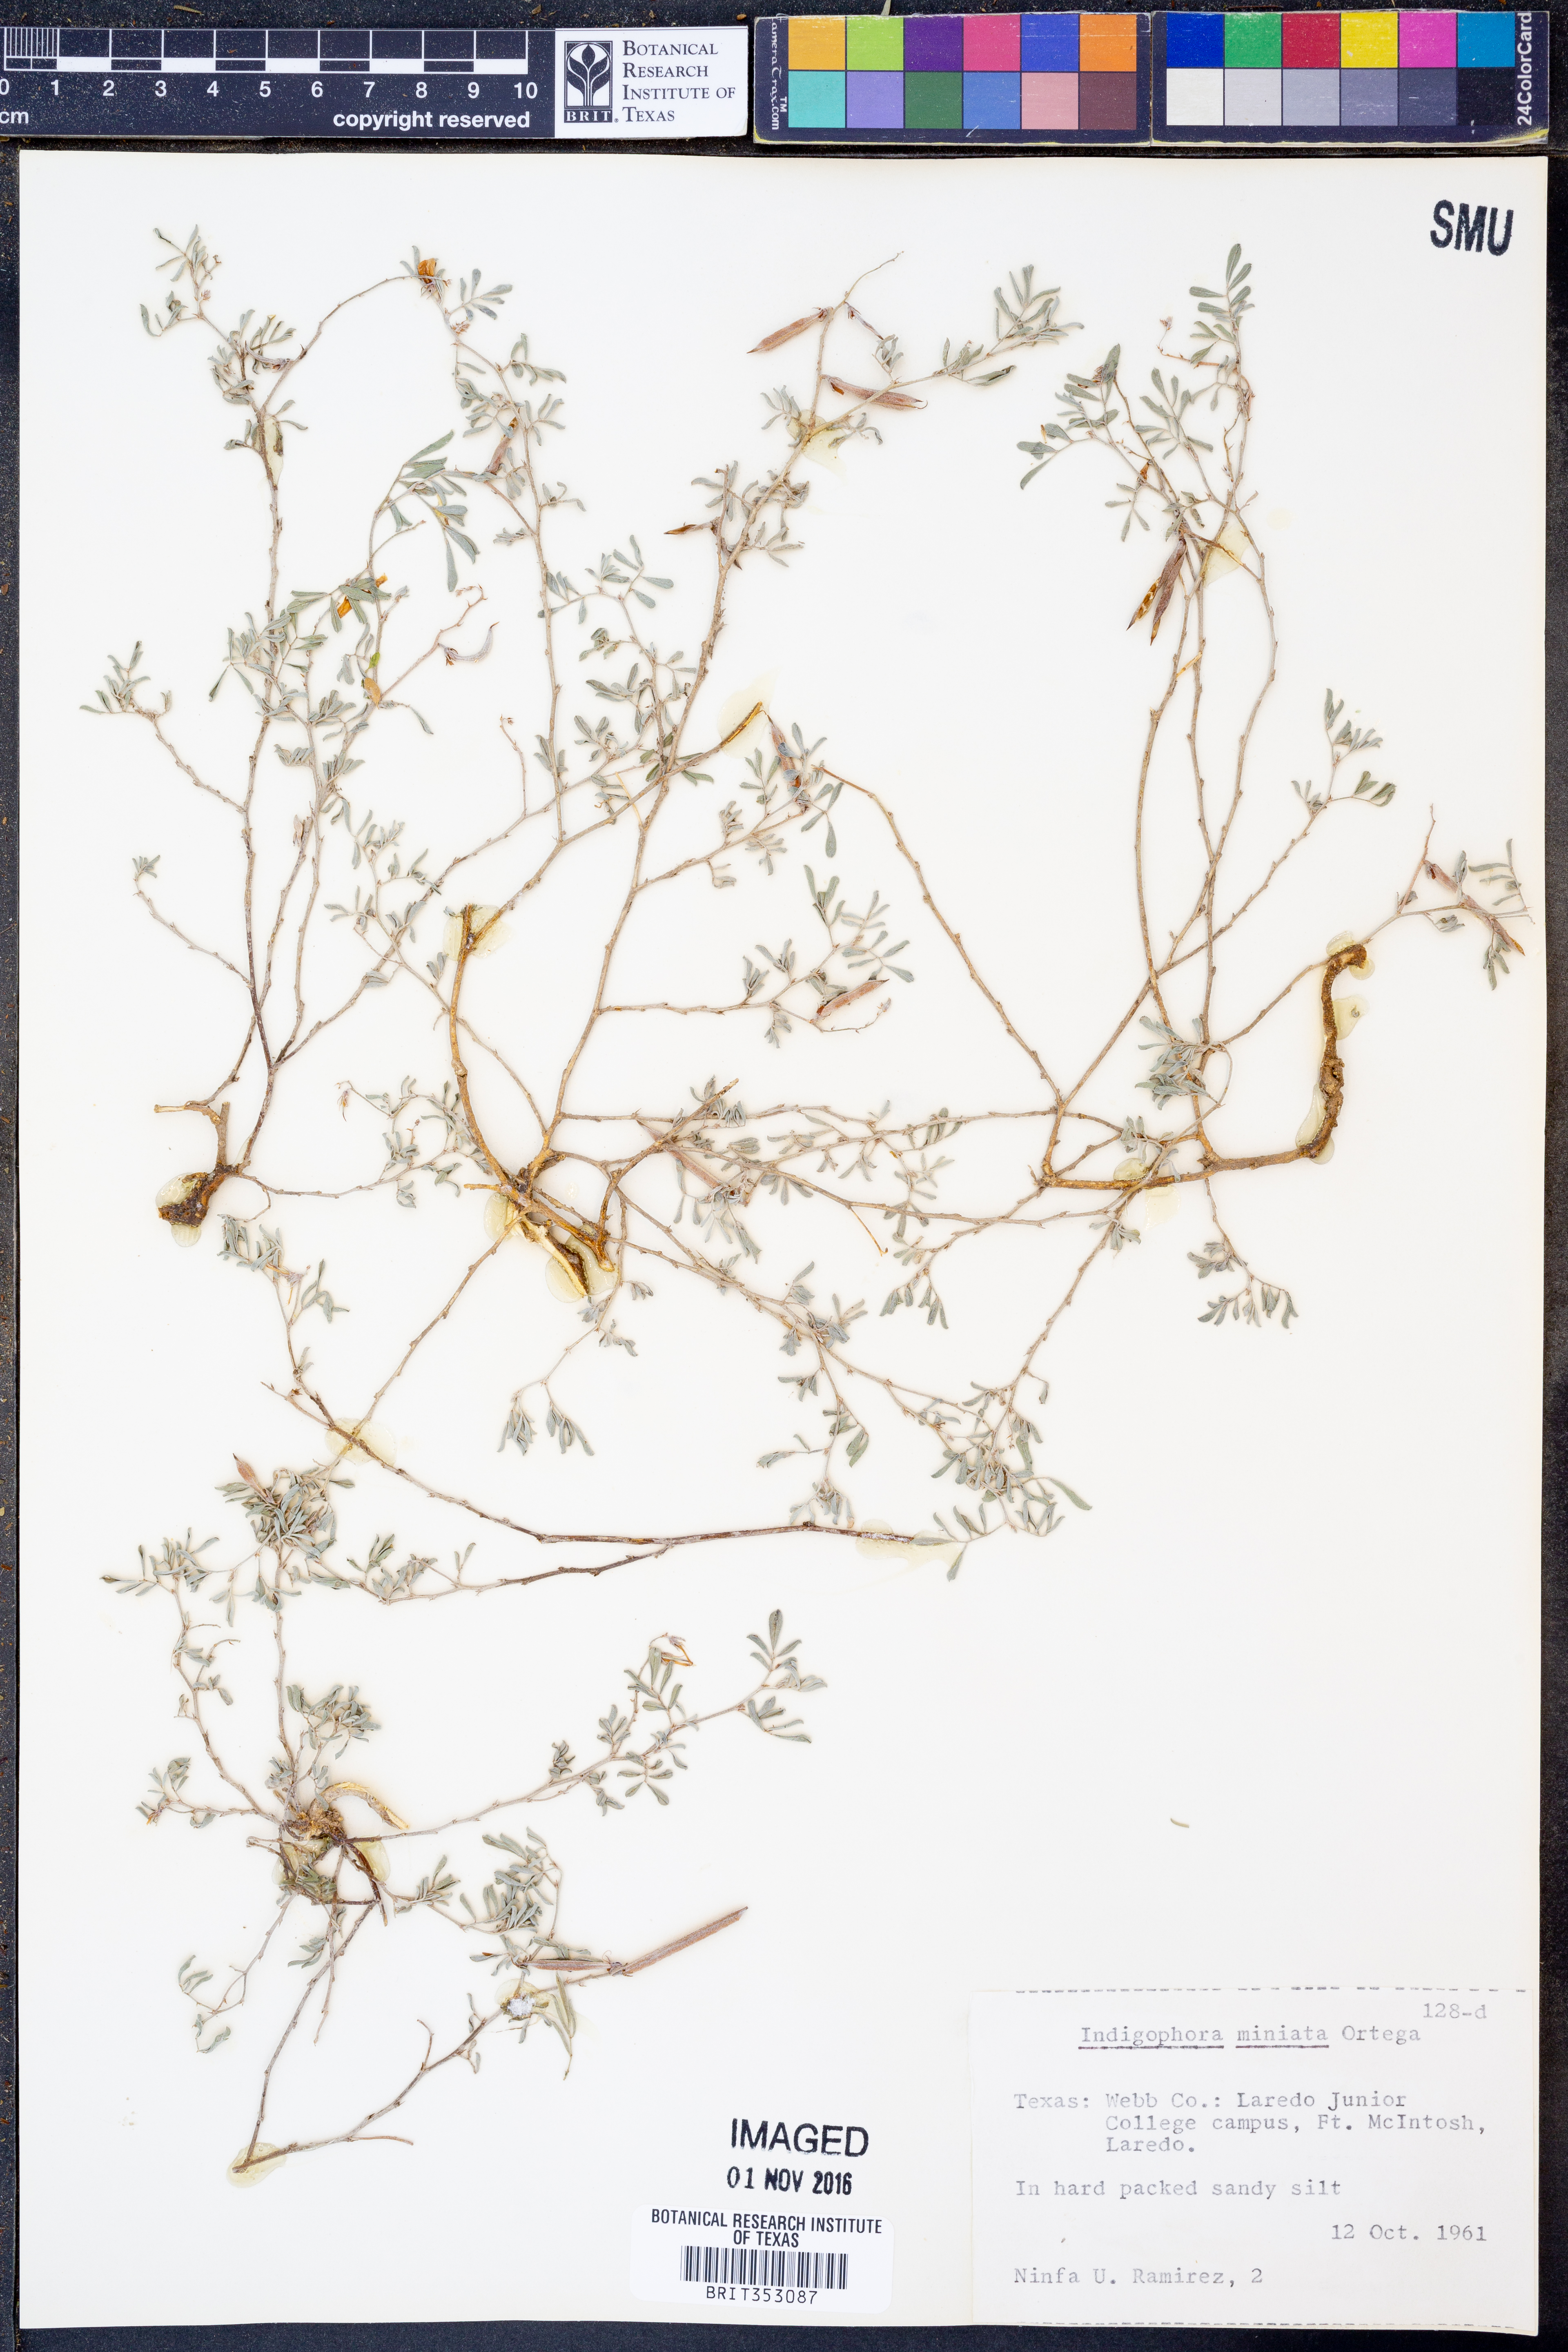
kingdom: Plantae
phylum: Tracheophyta
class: Magnoliopsida
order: Fabales
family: Fabaceae
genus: Indigofera
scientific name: Indigofera miniata
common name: Coast indigo
